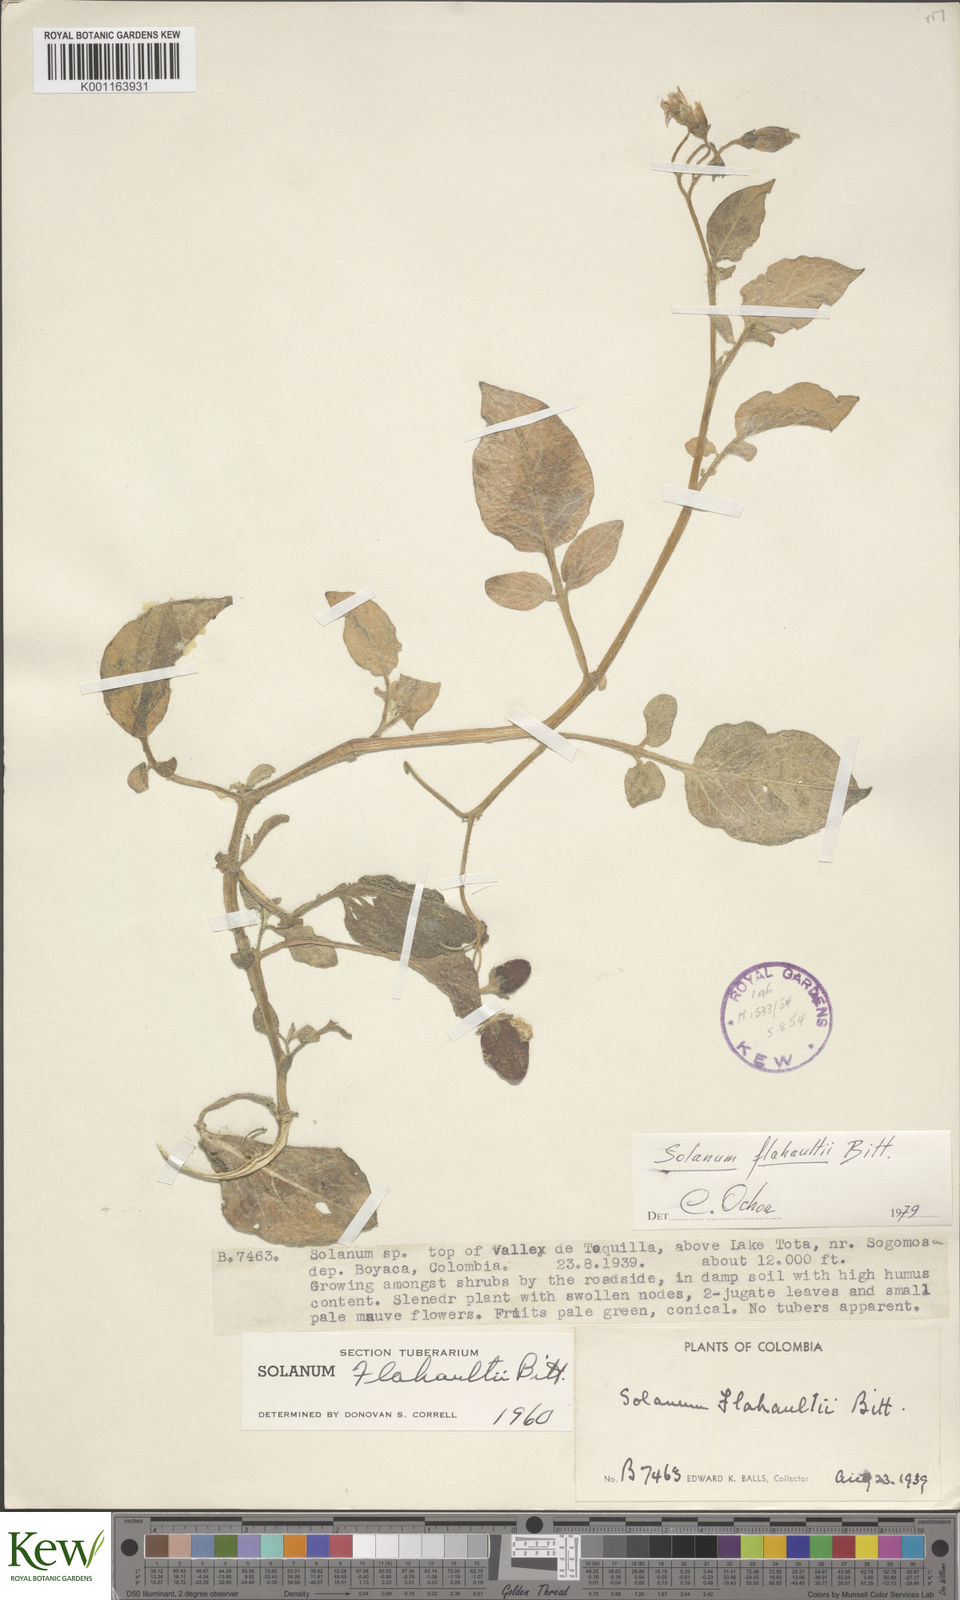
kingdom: Plantae
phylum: Tracheophyta
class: Magnoliopsida
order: Solanales
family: Solanaceae
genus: Solanum
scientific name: Solanum flahaultii
